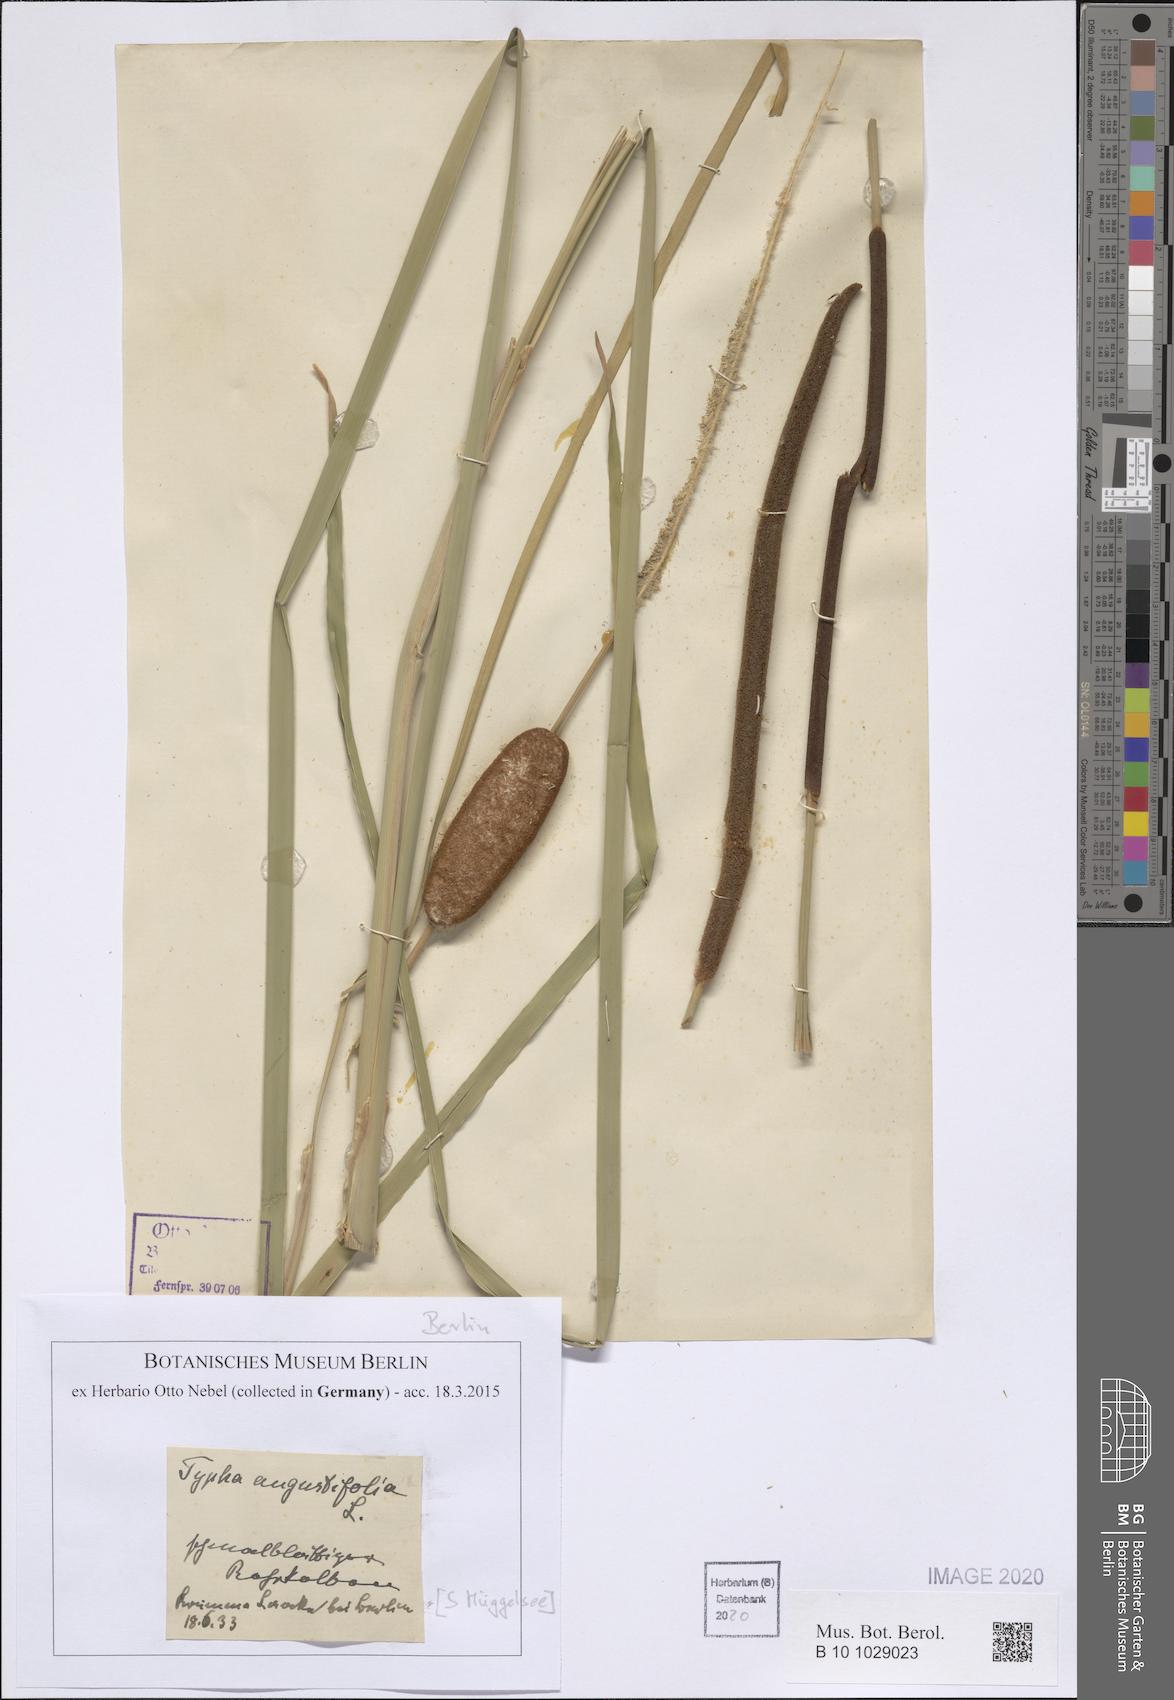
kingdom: Plantae
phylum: Tracheophyta
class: Liliopsida
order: Poales
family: Typhaceae
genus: Typha
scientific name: Typha angustifolia
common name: Lesser bulrush
